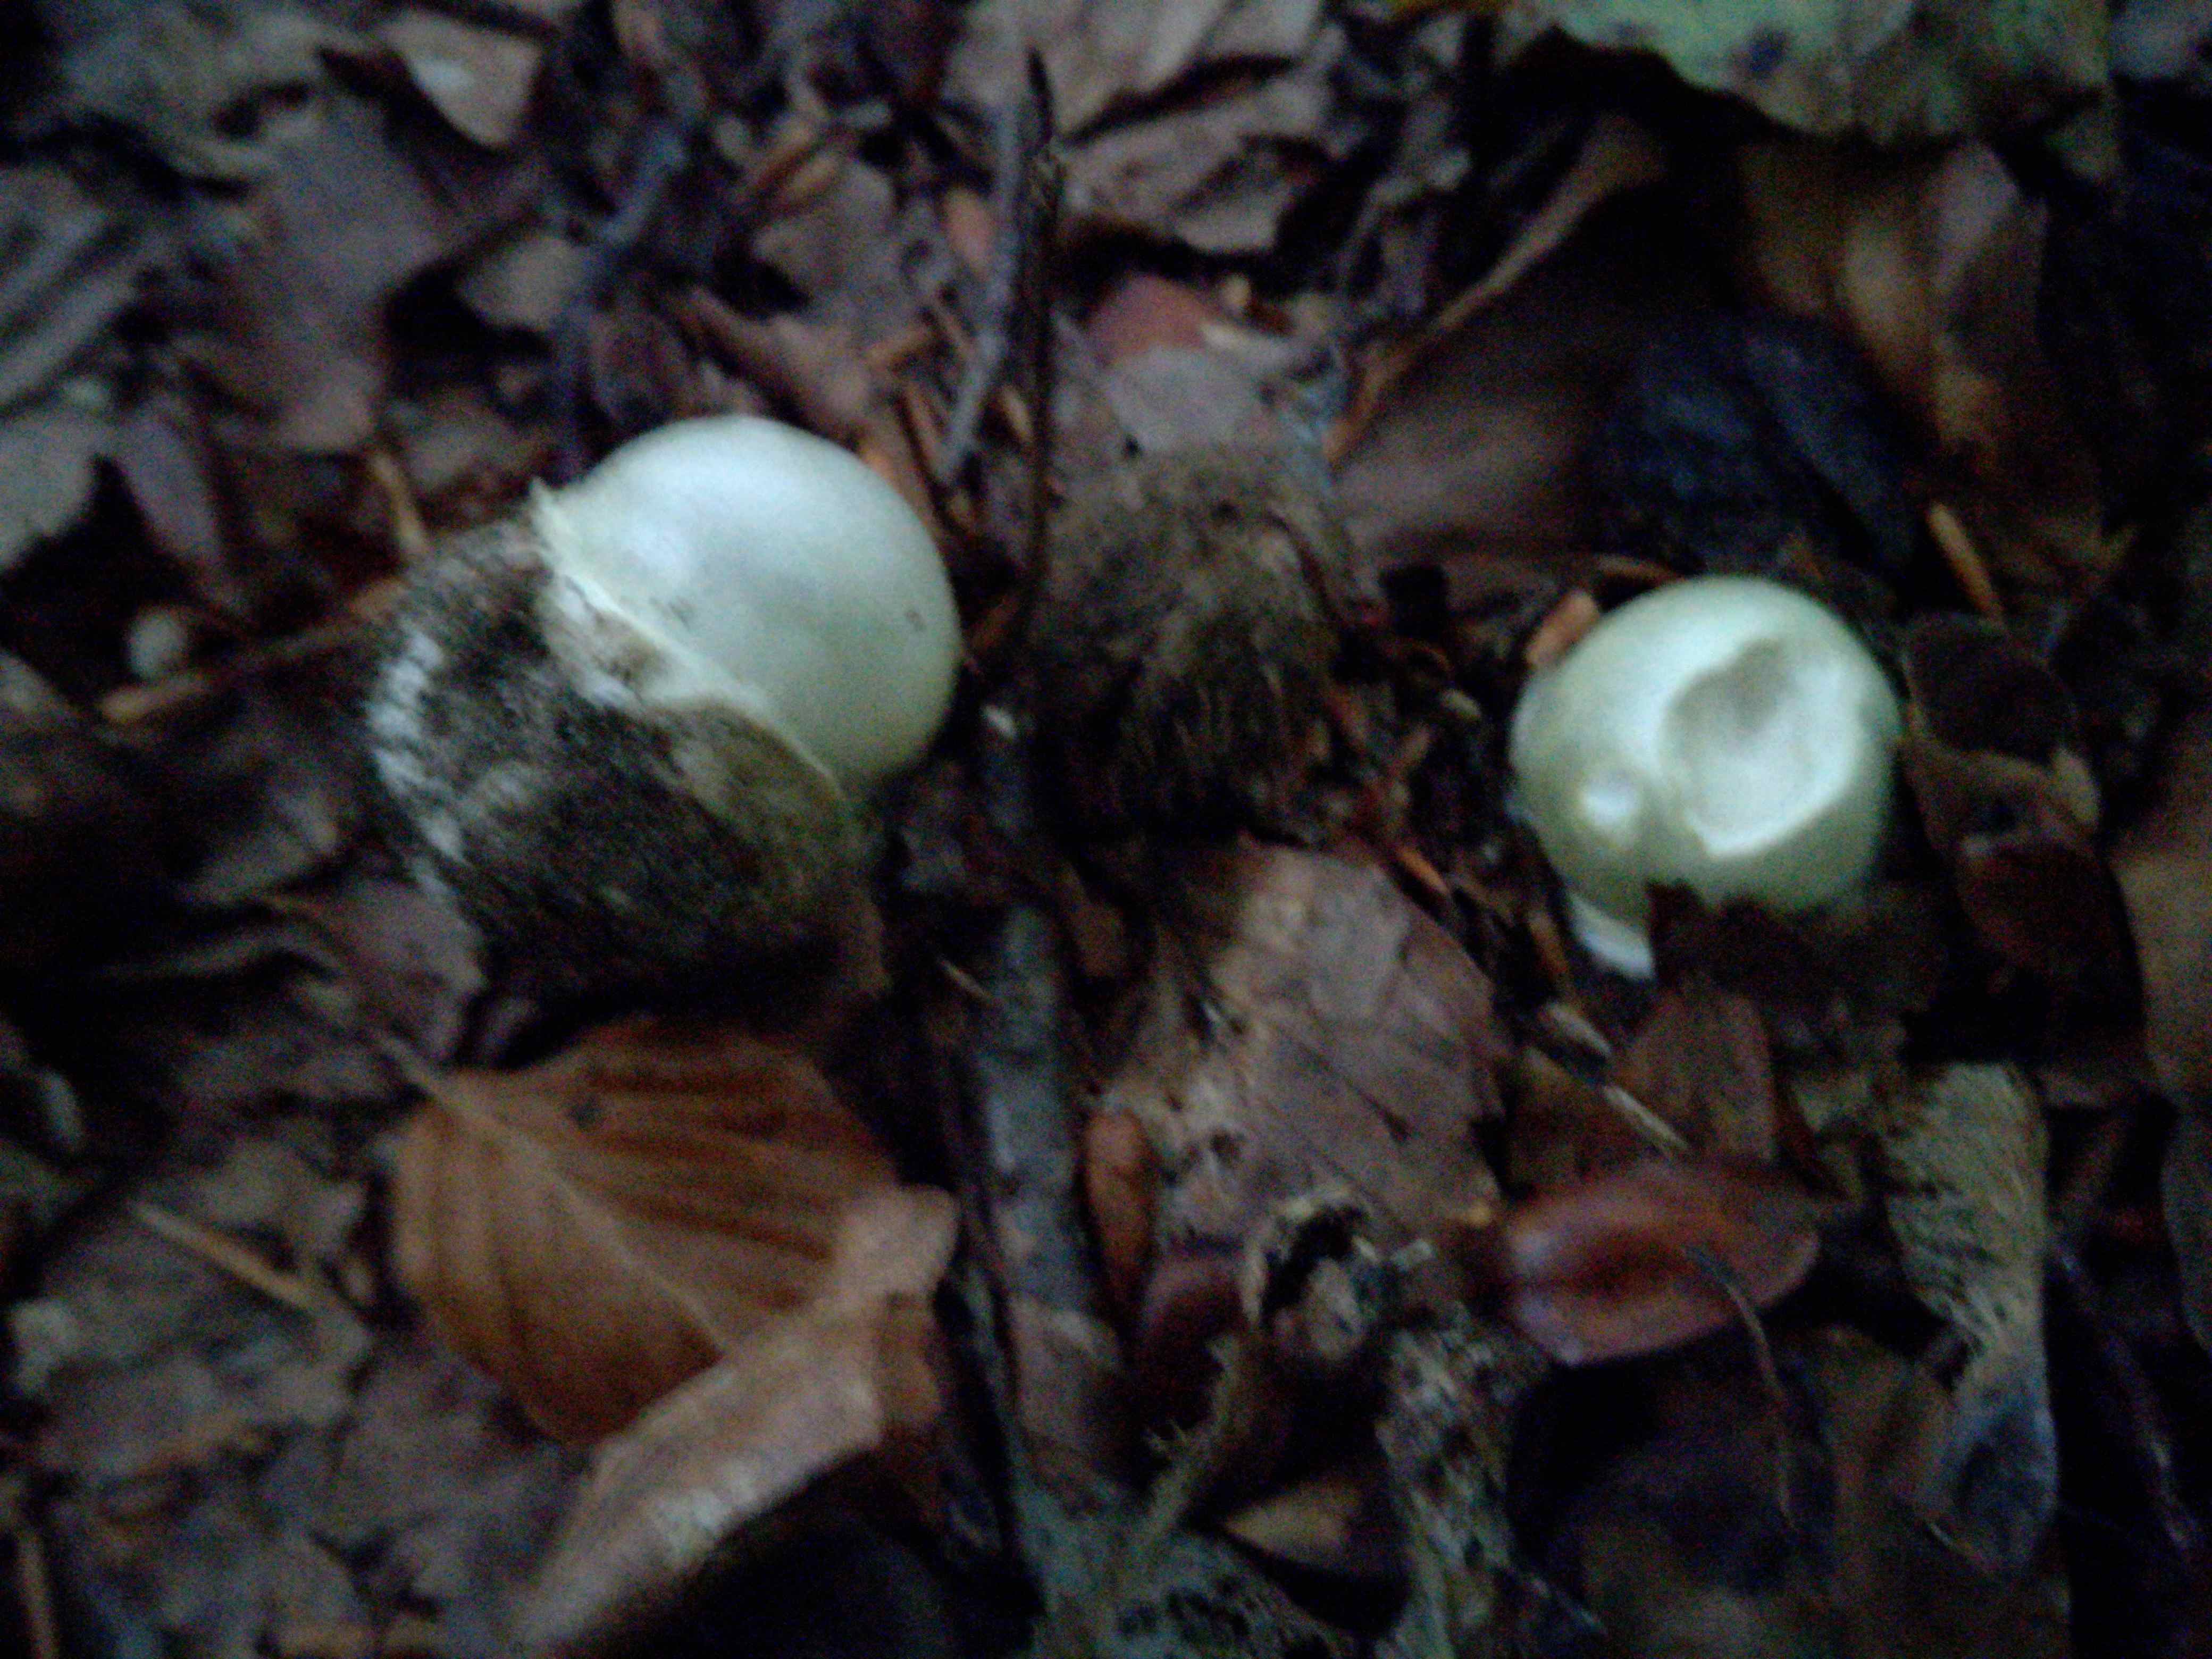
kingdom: Fungi
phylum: Basidiomycota
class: Agaricomycetes
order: Agaricales
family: Amanitaceae
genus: Amanita
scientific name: Amanita phalloides
